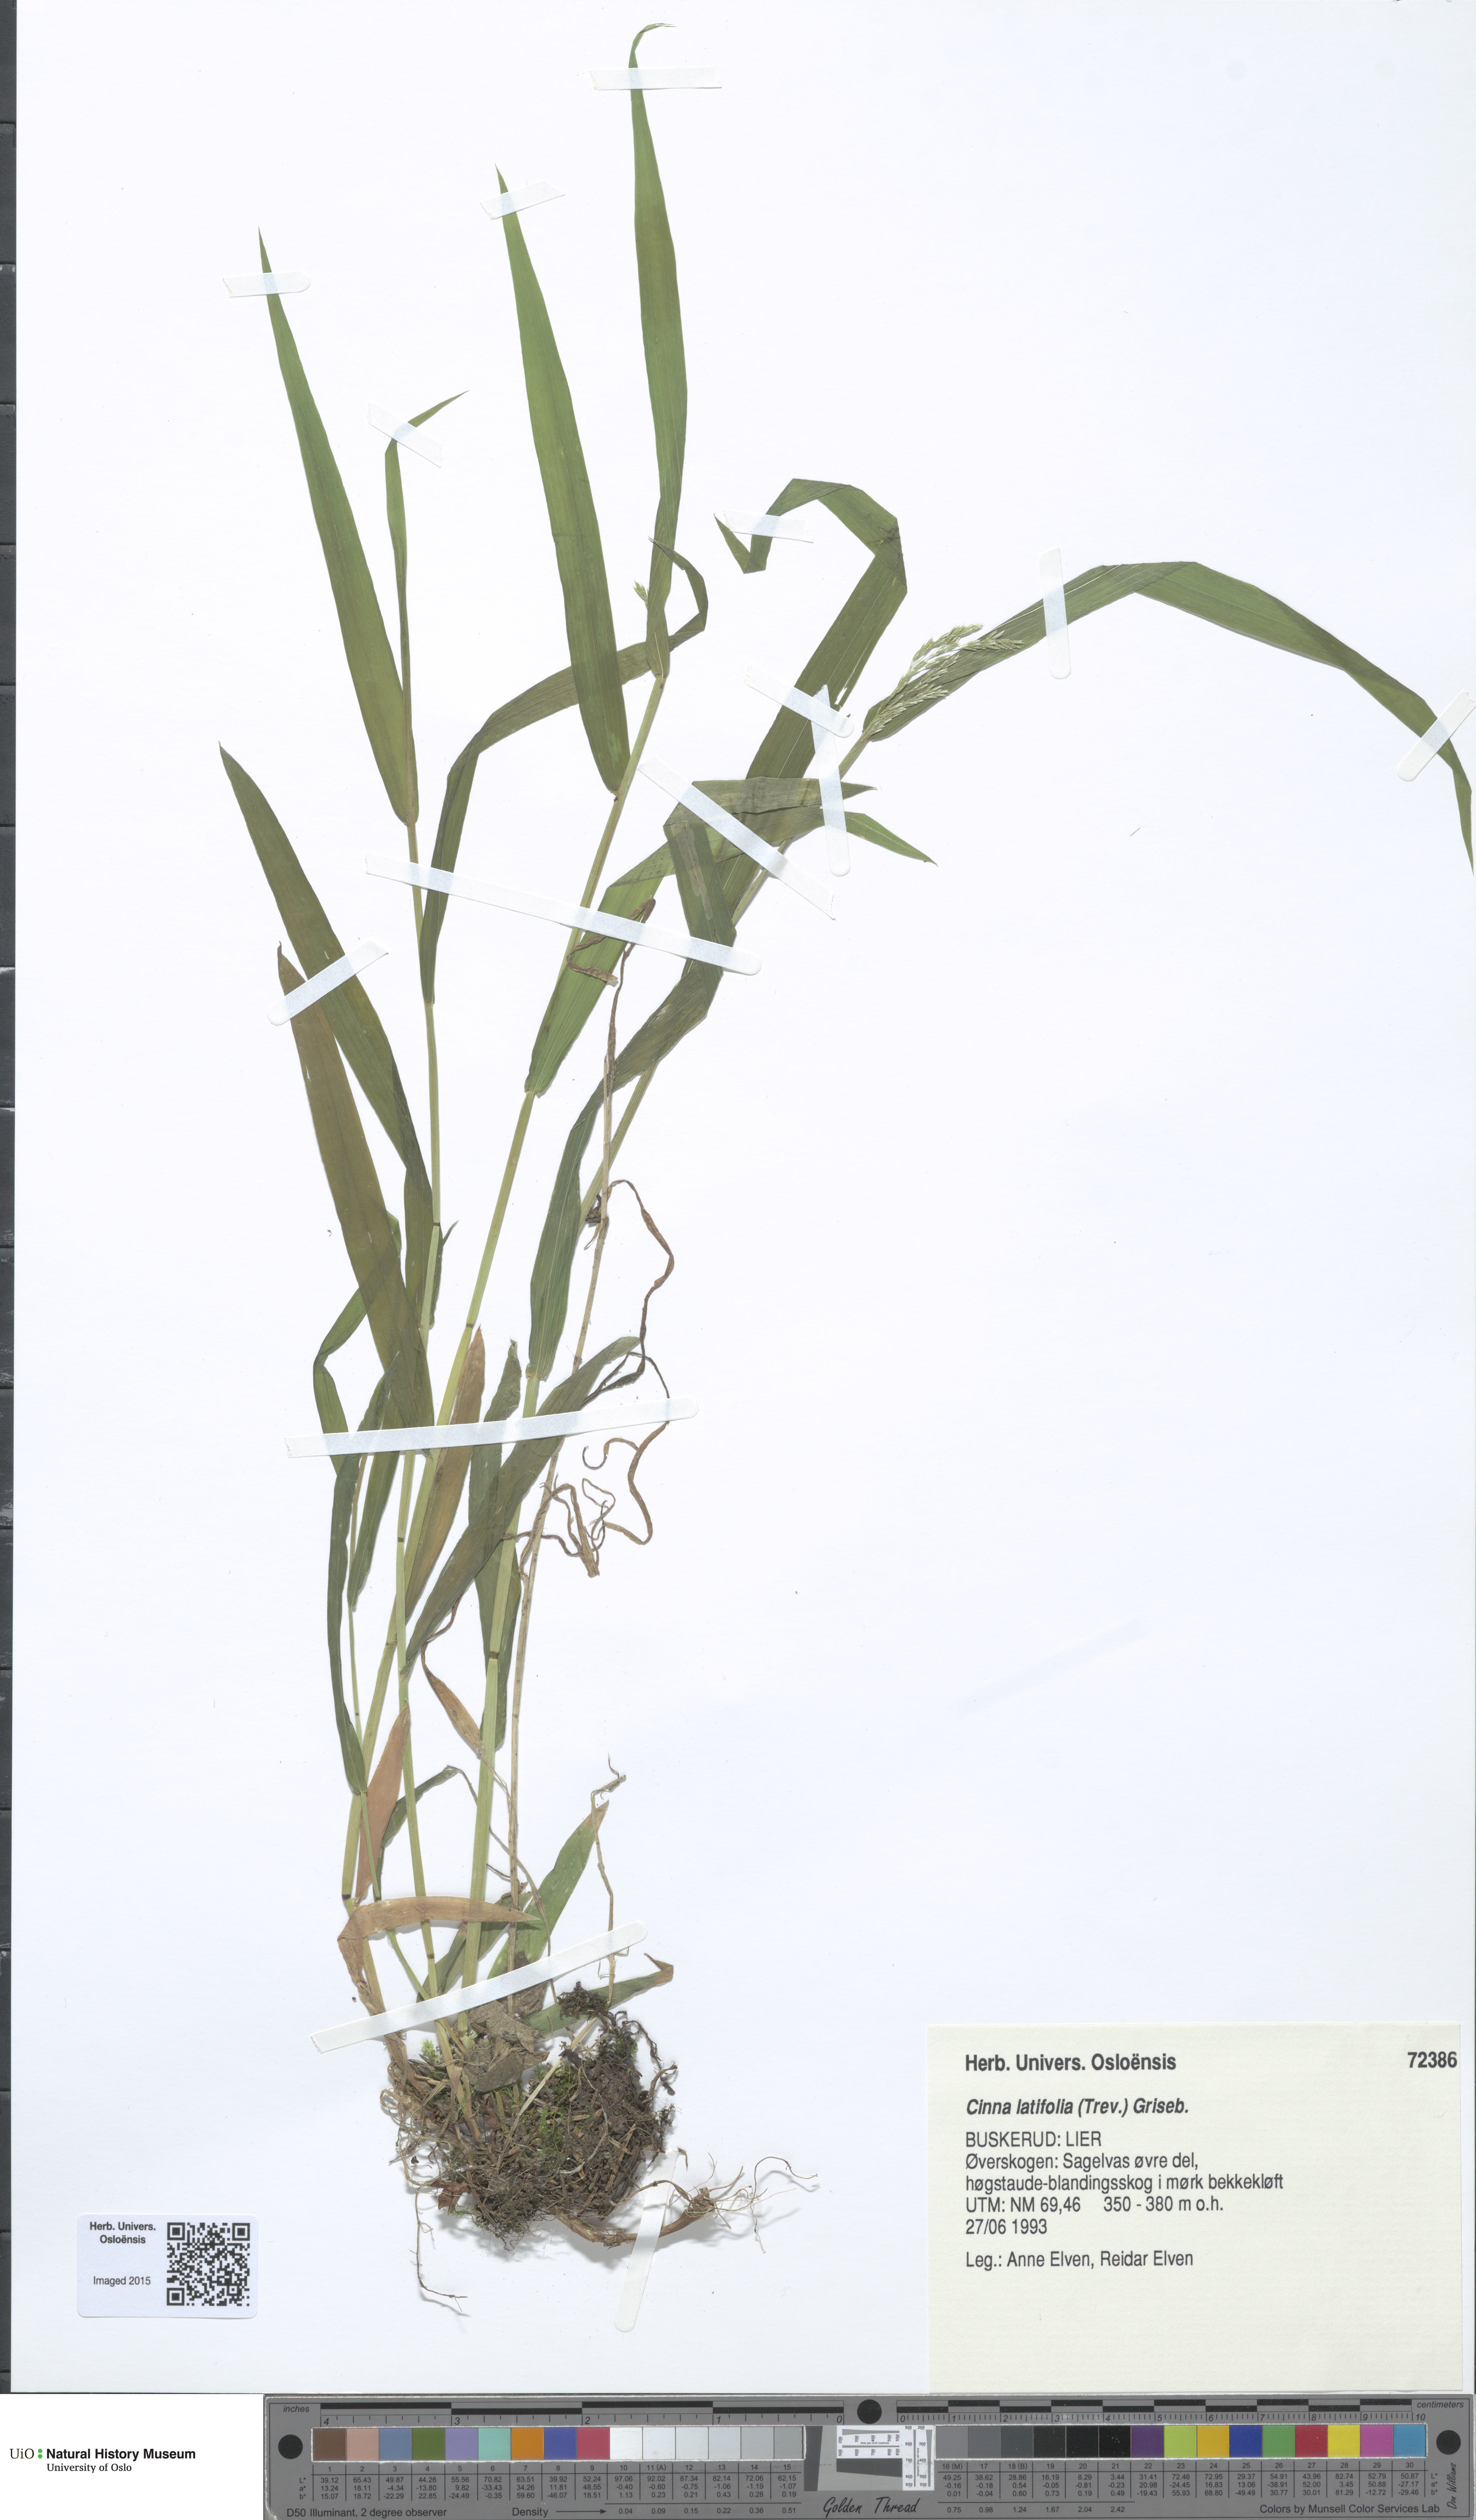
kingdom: Plantae
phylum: Tracheophyta
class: Liliopsida
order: Poales
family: Poaceae
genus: Cinna
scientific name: Cinna latifolia
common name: Drooping woodreed
